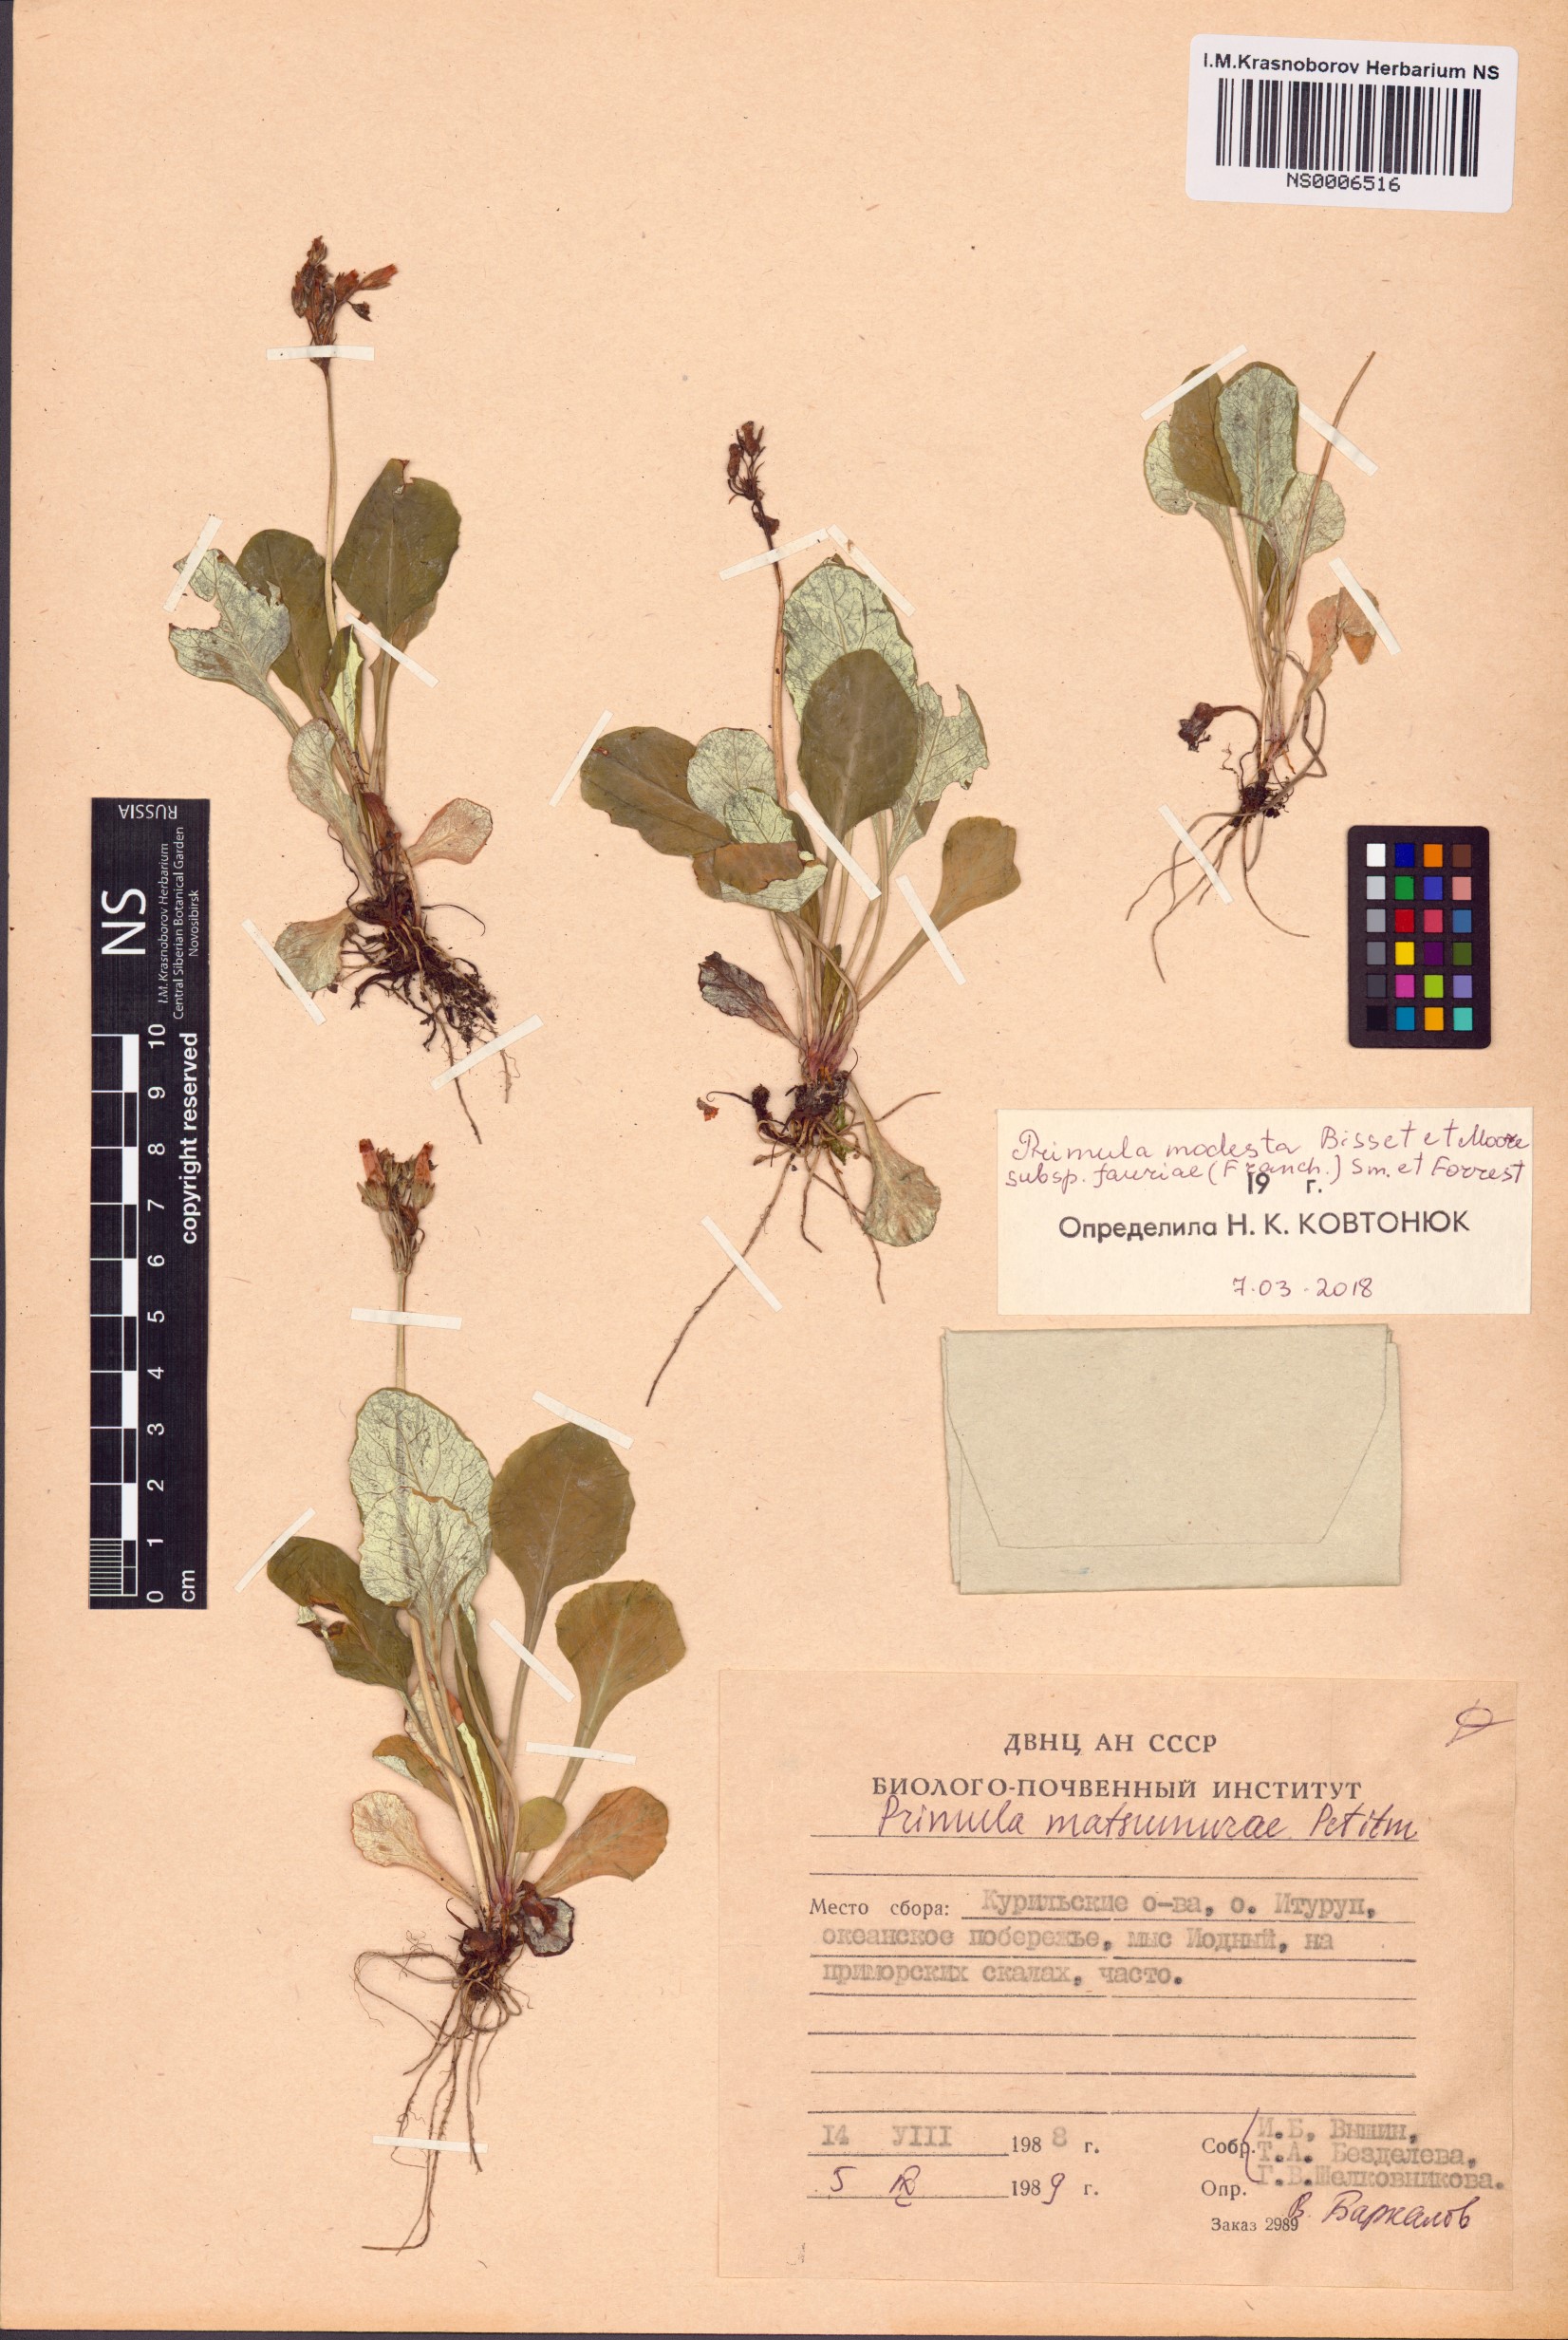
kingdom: Plantae
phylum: Tracheophyta
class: Magnoliopsida
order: Ericales
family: Primulaceae
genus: Primula
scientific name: Primula modesta
